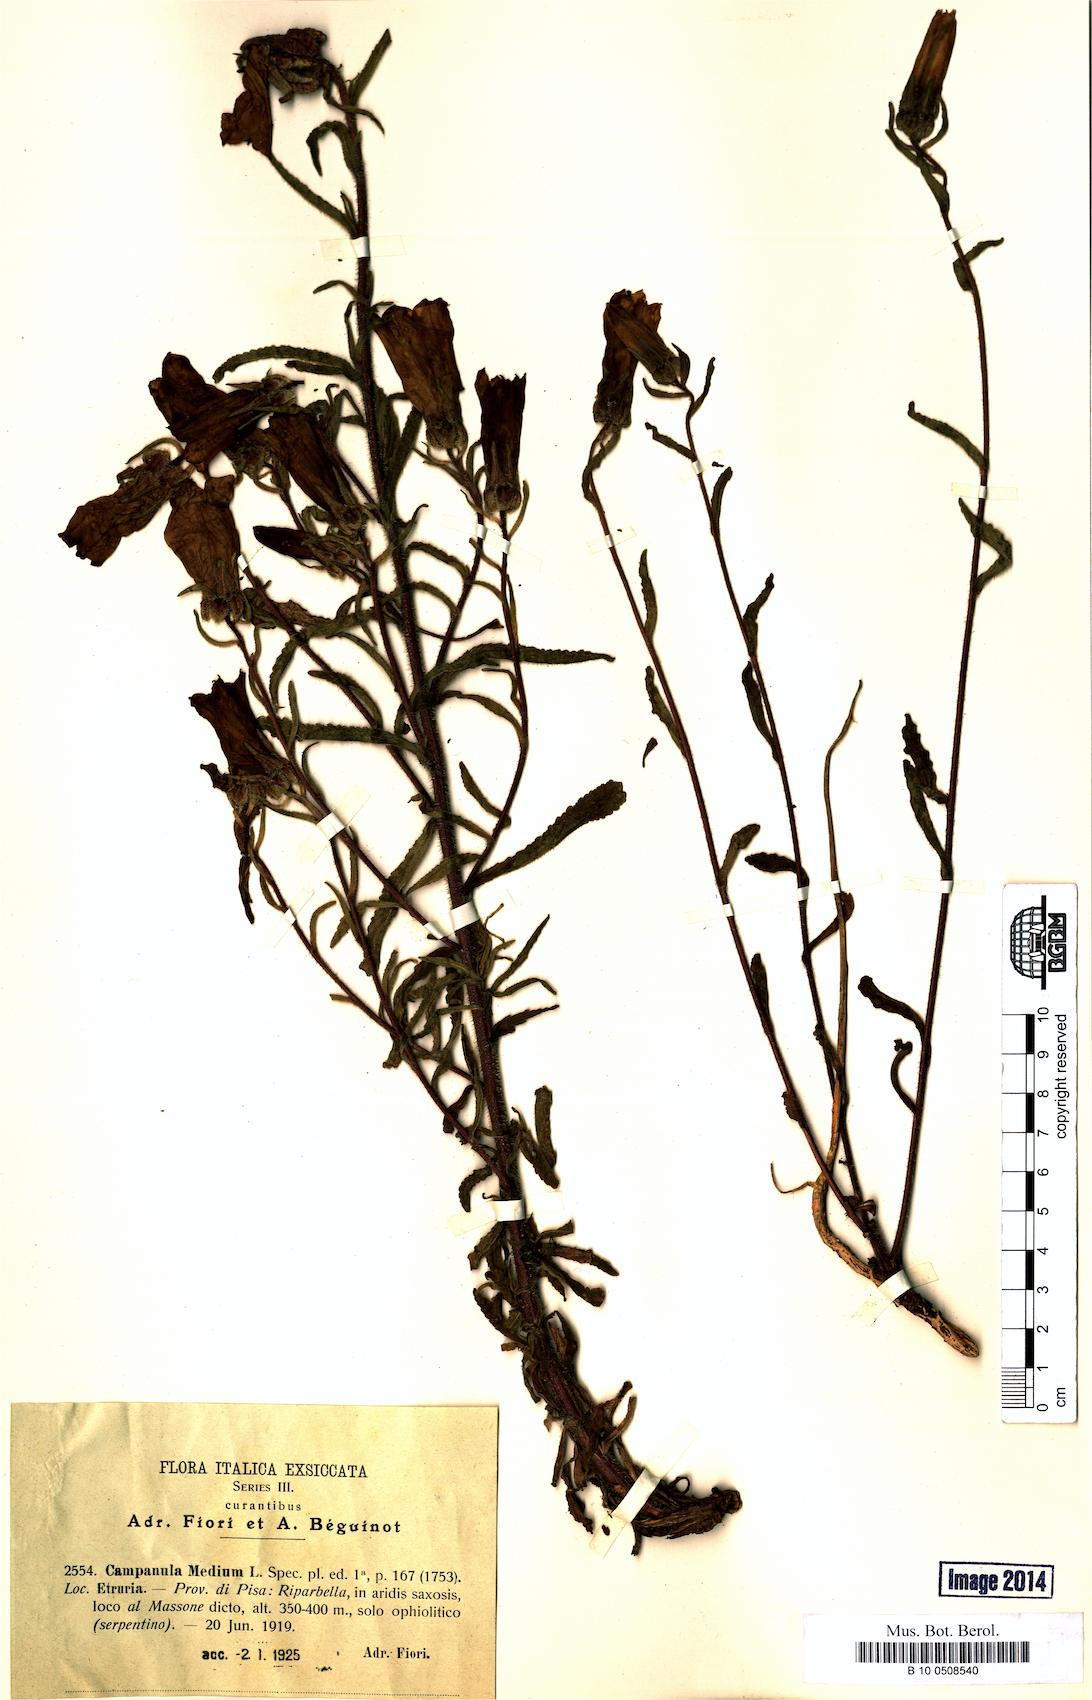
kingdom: Plantae
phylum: Tracheophyta
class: Magnoliopsida
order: Asterales
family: Campanulaceae
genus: Campanula
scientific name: Campanula medium
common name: Canterbury bells
